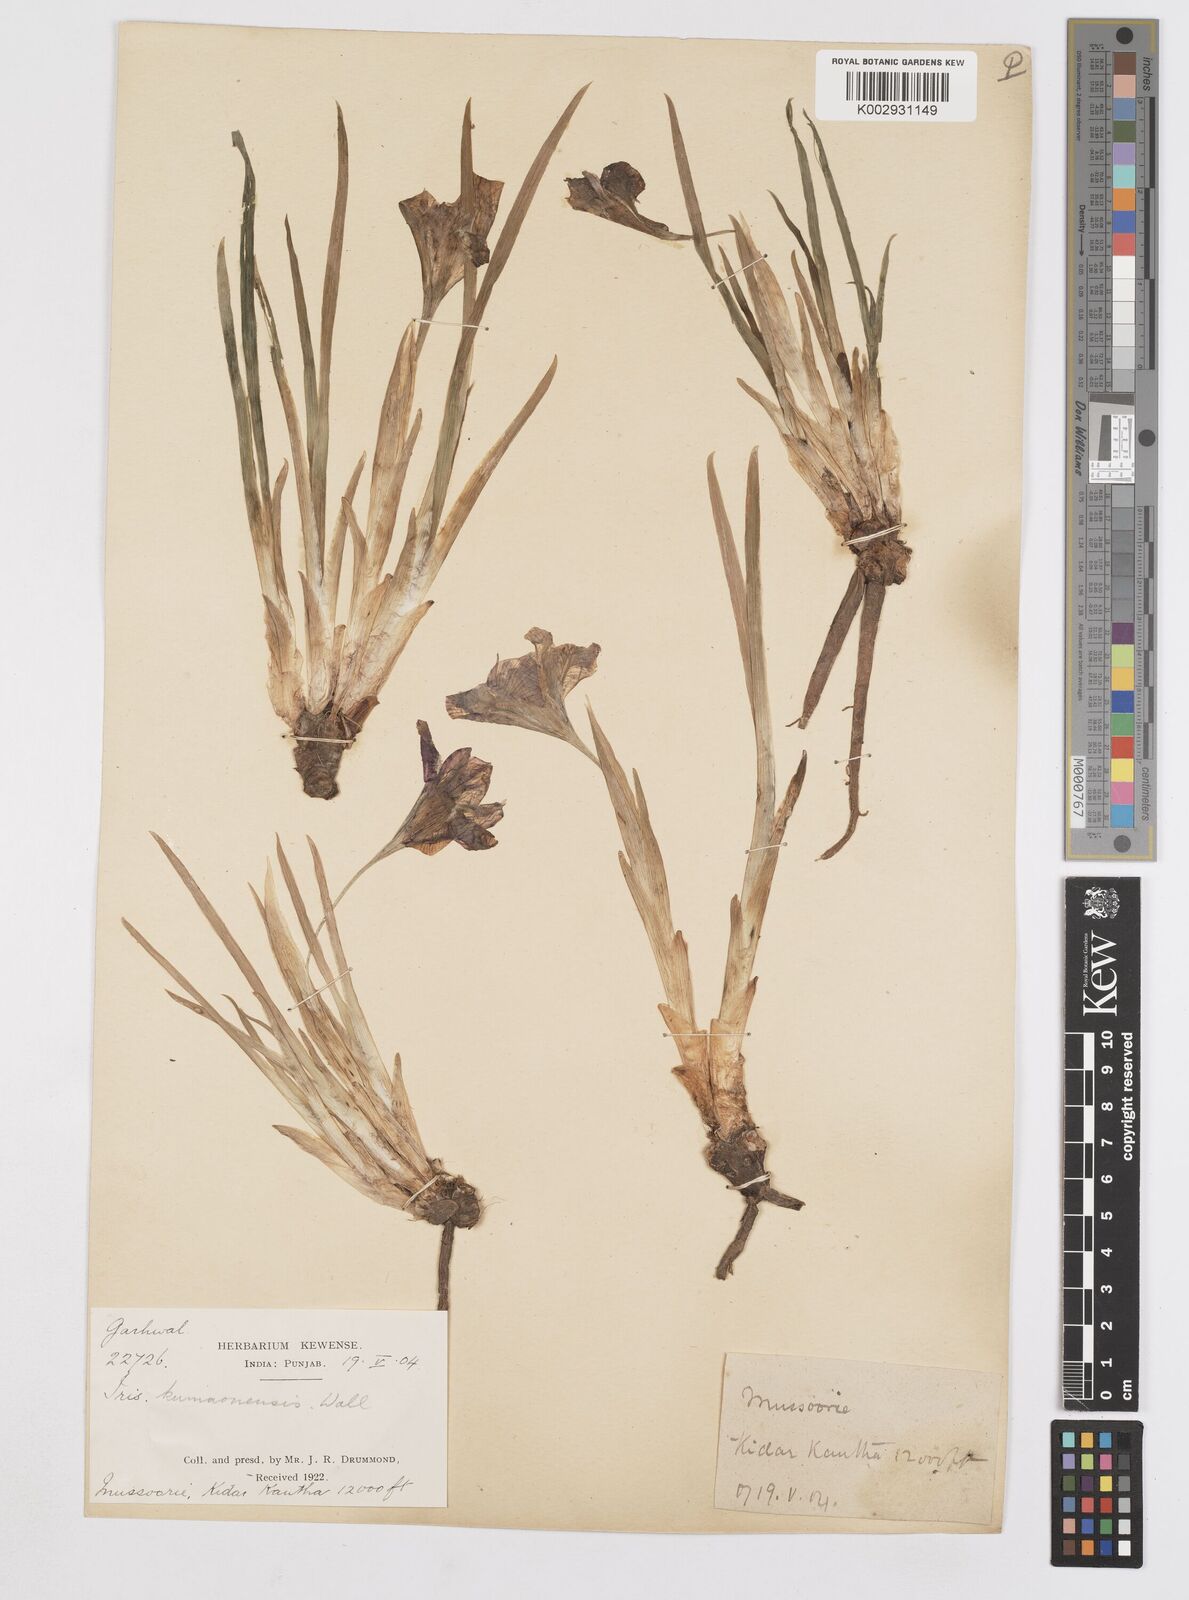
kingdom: Plantae
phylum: Tracheophyta
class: Liliopsida
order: Asparagales
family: Iridaceae
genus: Iris
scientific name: Iris kemaonensis
